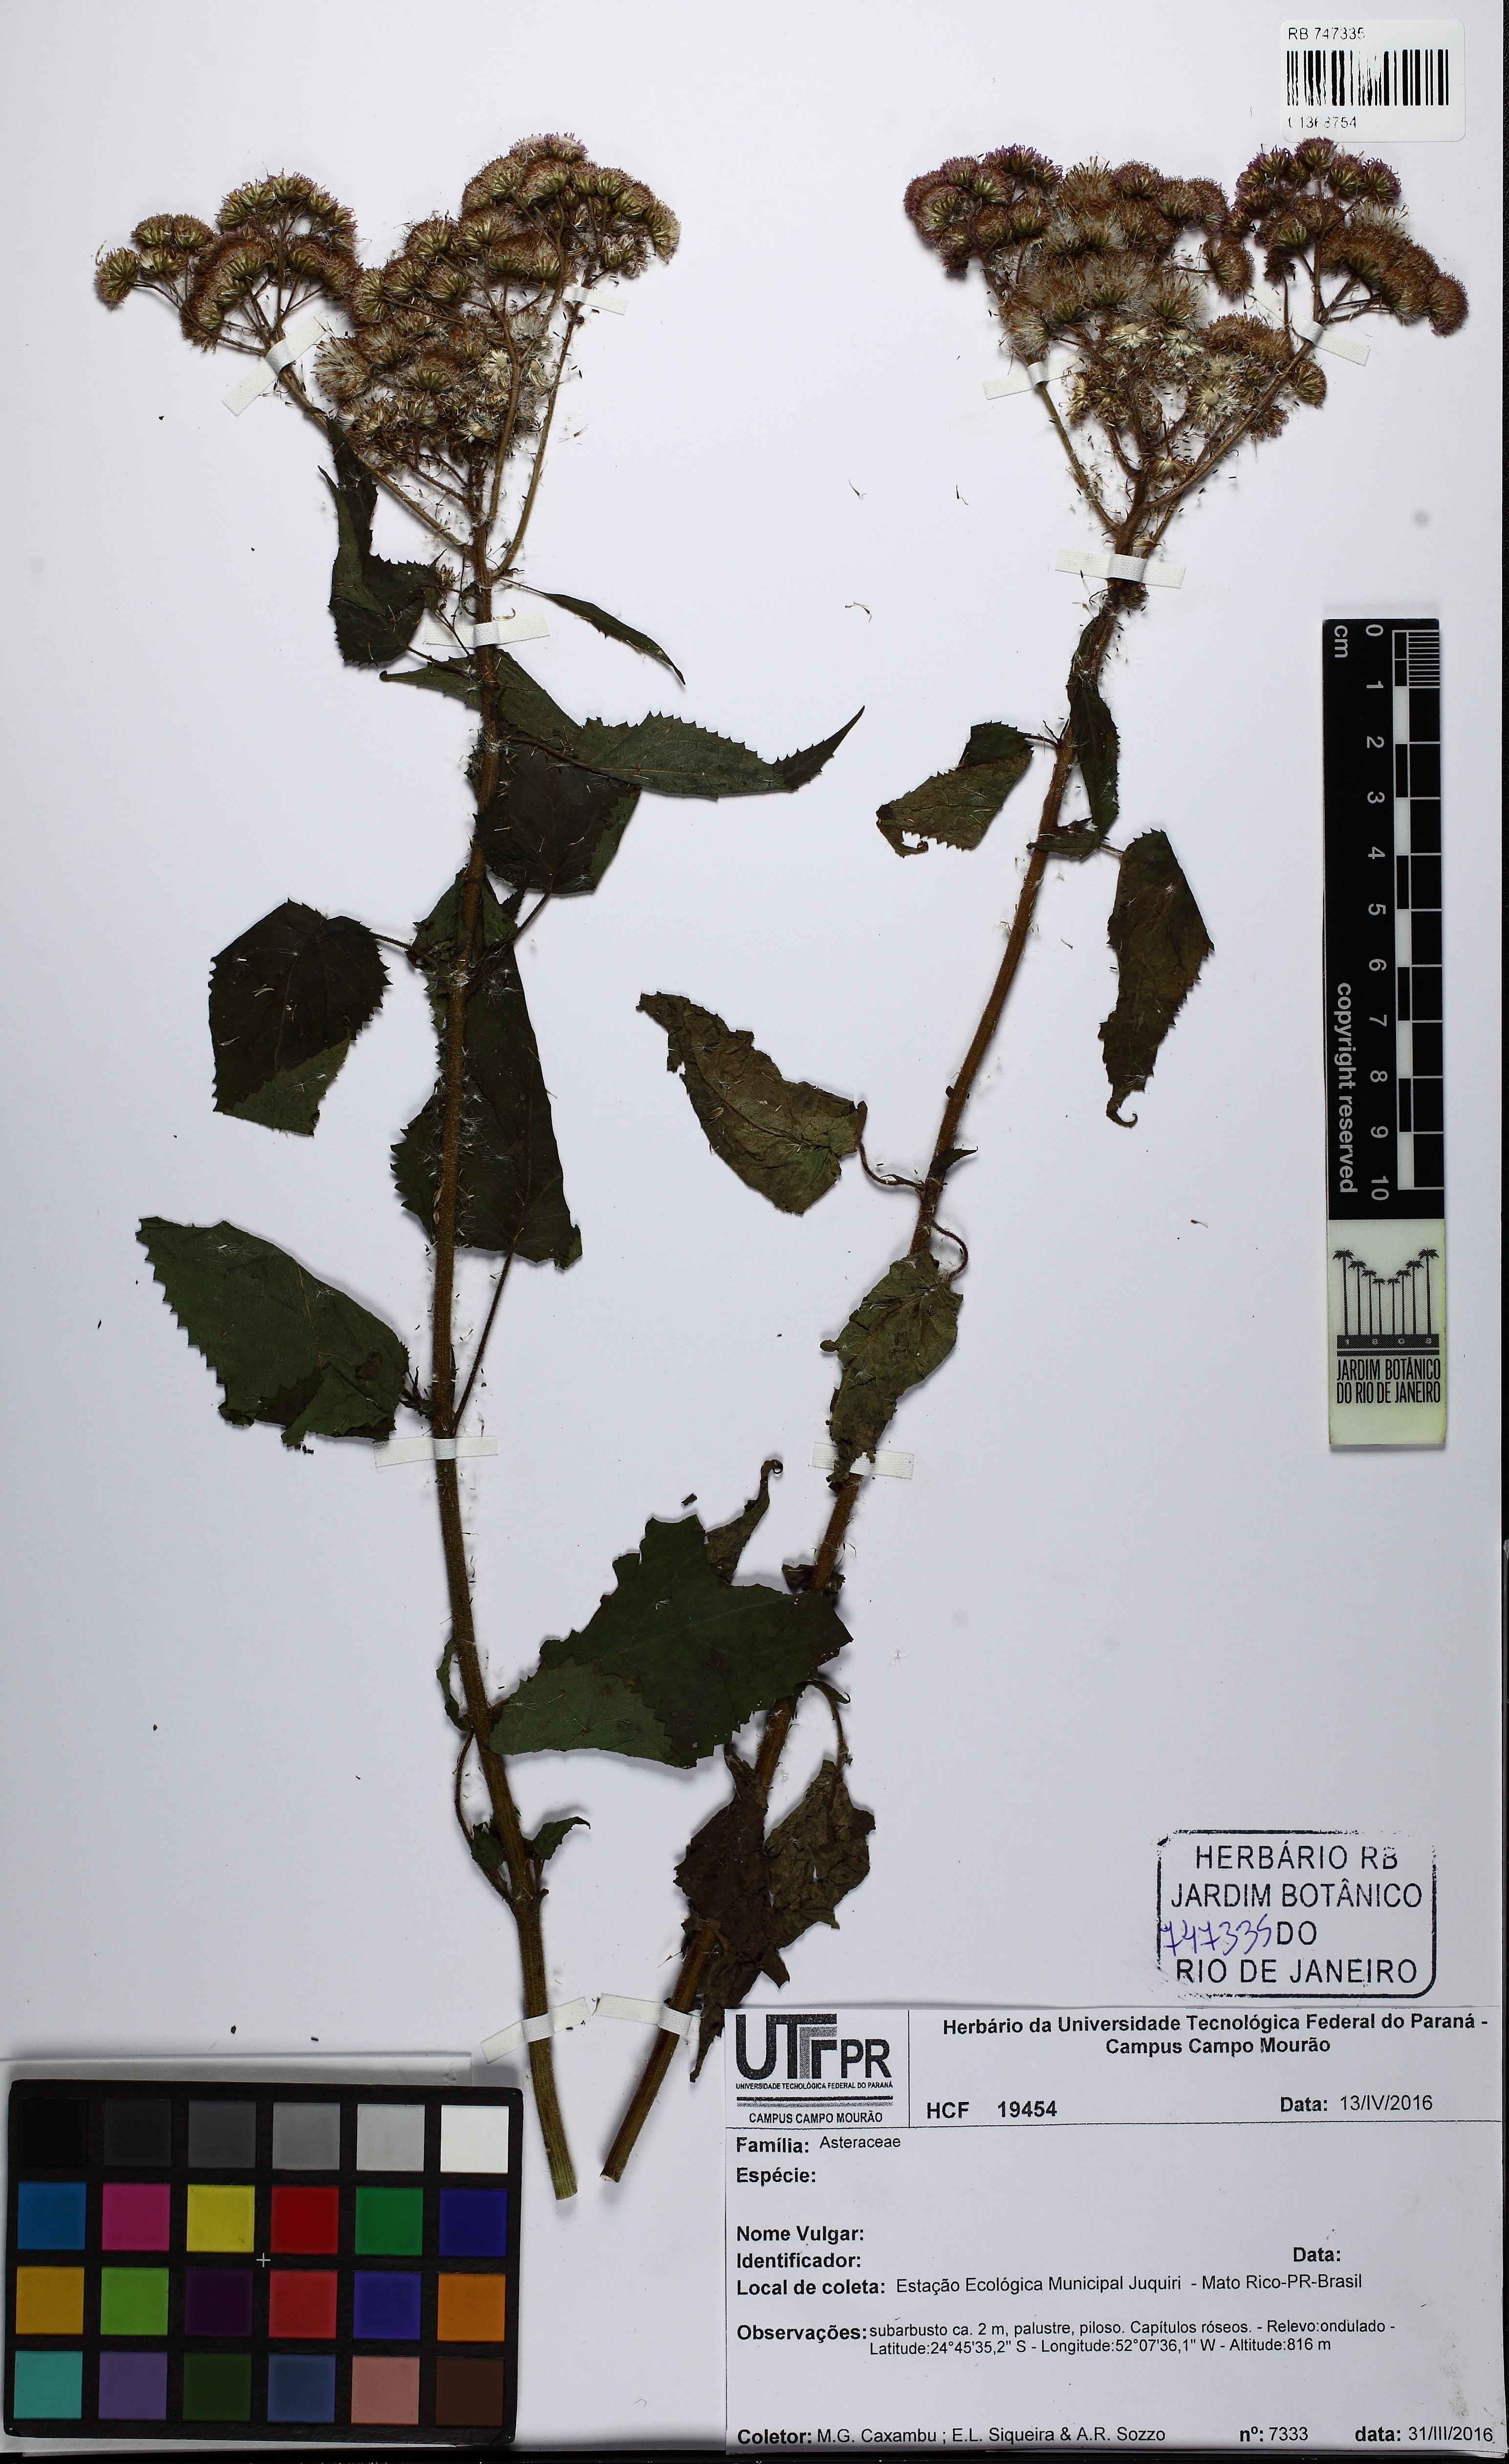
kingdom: Plantae
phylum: Tracheophyta
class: Magnoliopsida
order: Asterales
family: Asteraceae
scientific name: Asteraceae
